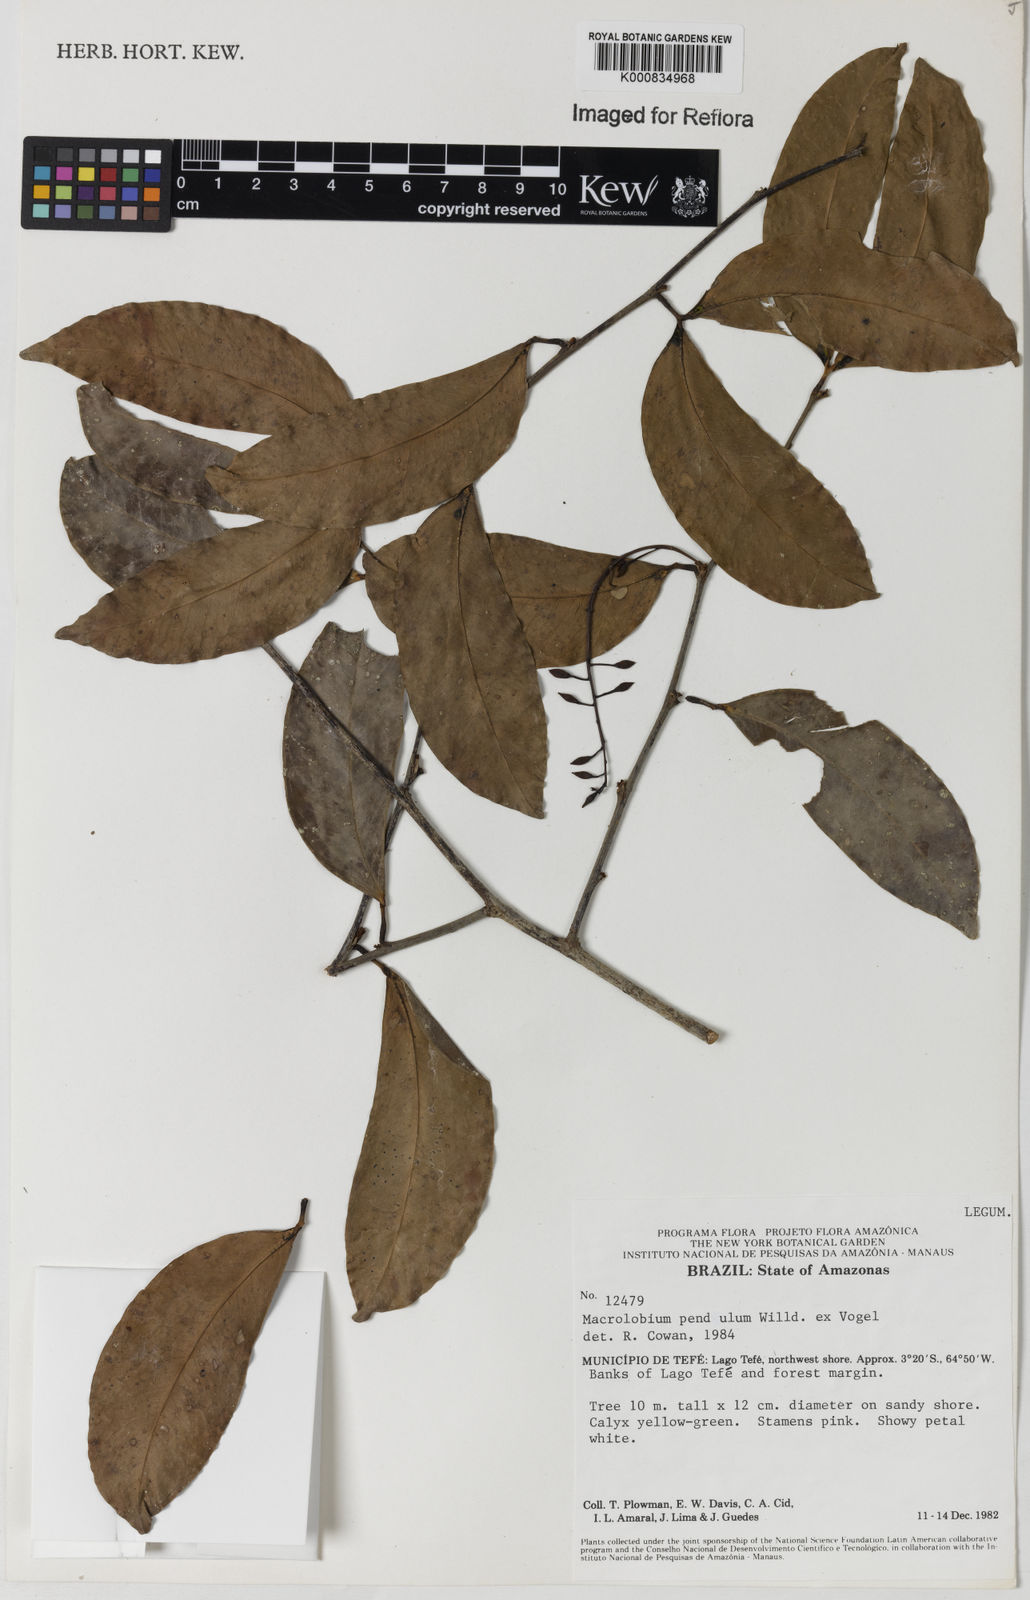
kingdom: Plantae
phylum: Tracheophyta
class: Magnoliopsida
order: Fabales
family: Fabaceae
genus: Macrolobium
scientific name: Macrolobium pendulum
